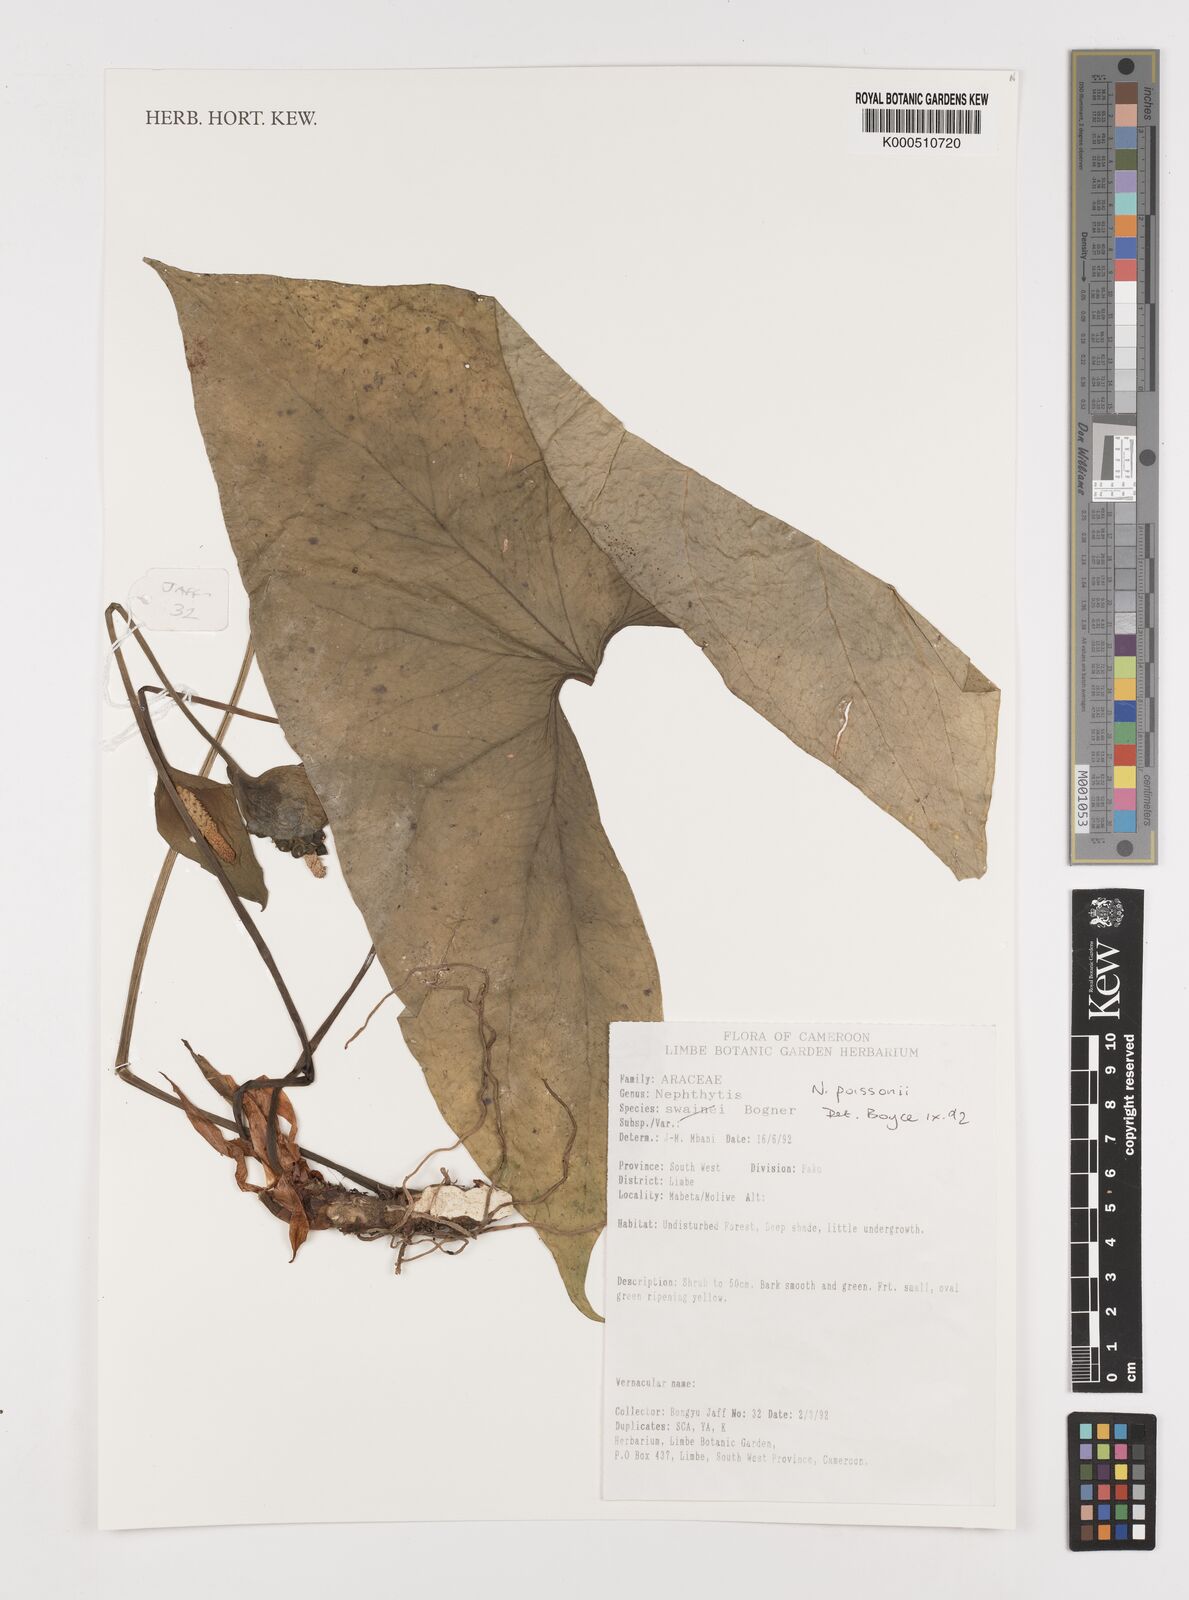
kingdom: Plantae
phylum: Tracheophyta
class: Liliopsida
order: Alismatales
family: Araceae
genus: Nephthytis
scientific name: Nephthytis poissonii
